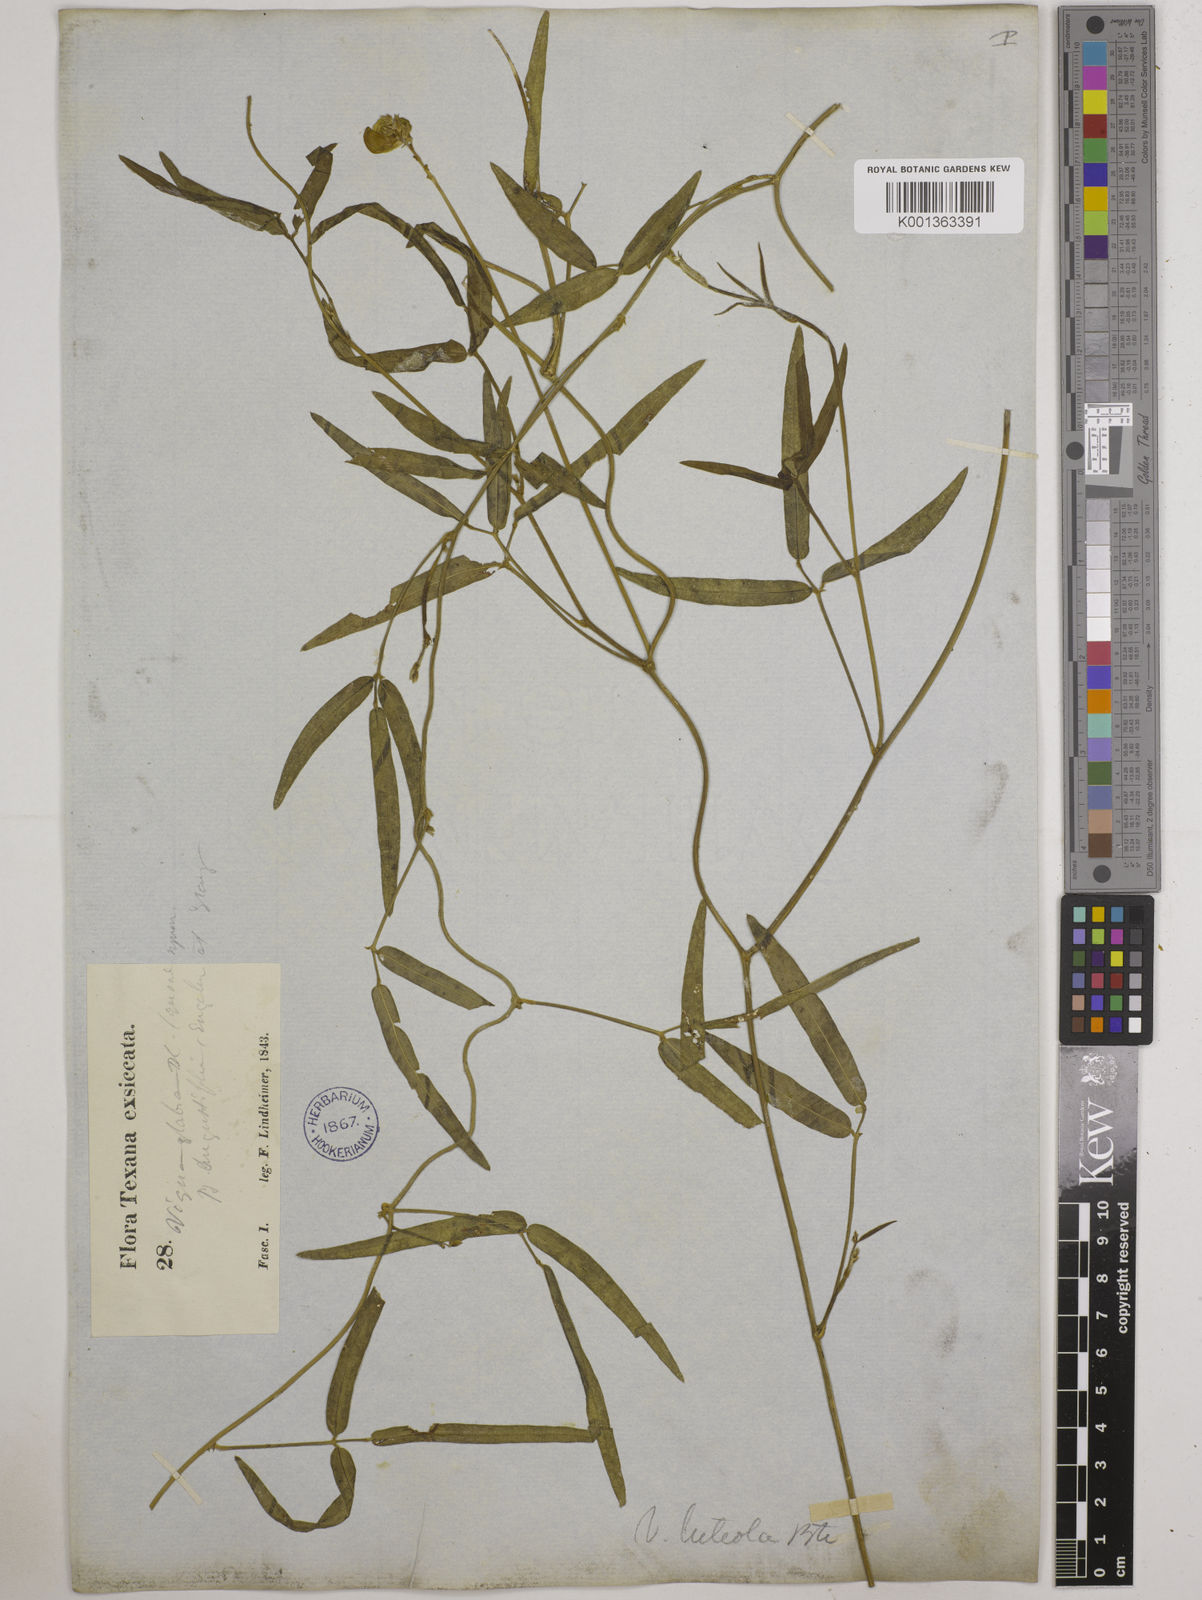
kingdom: Plantae
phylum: Tracheophyta
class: Magnoliopsida
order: Fabales
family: Fabaceae
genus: Vigna
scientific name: Vigna luteola
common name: Hairypod cowpea
